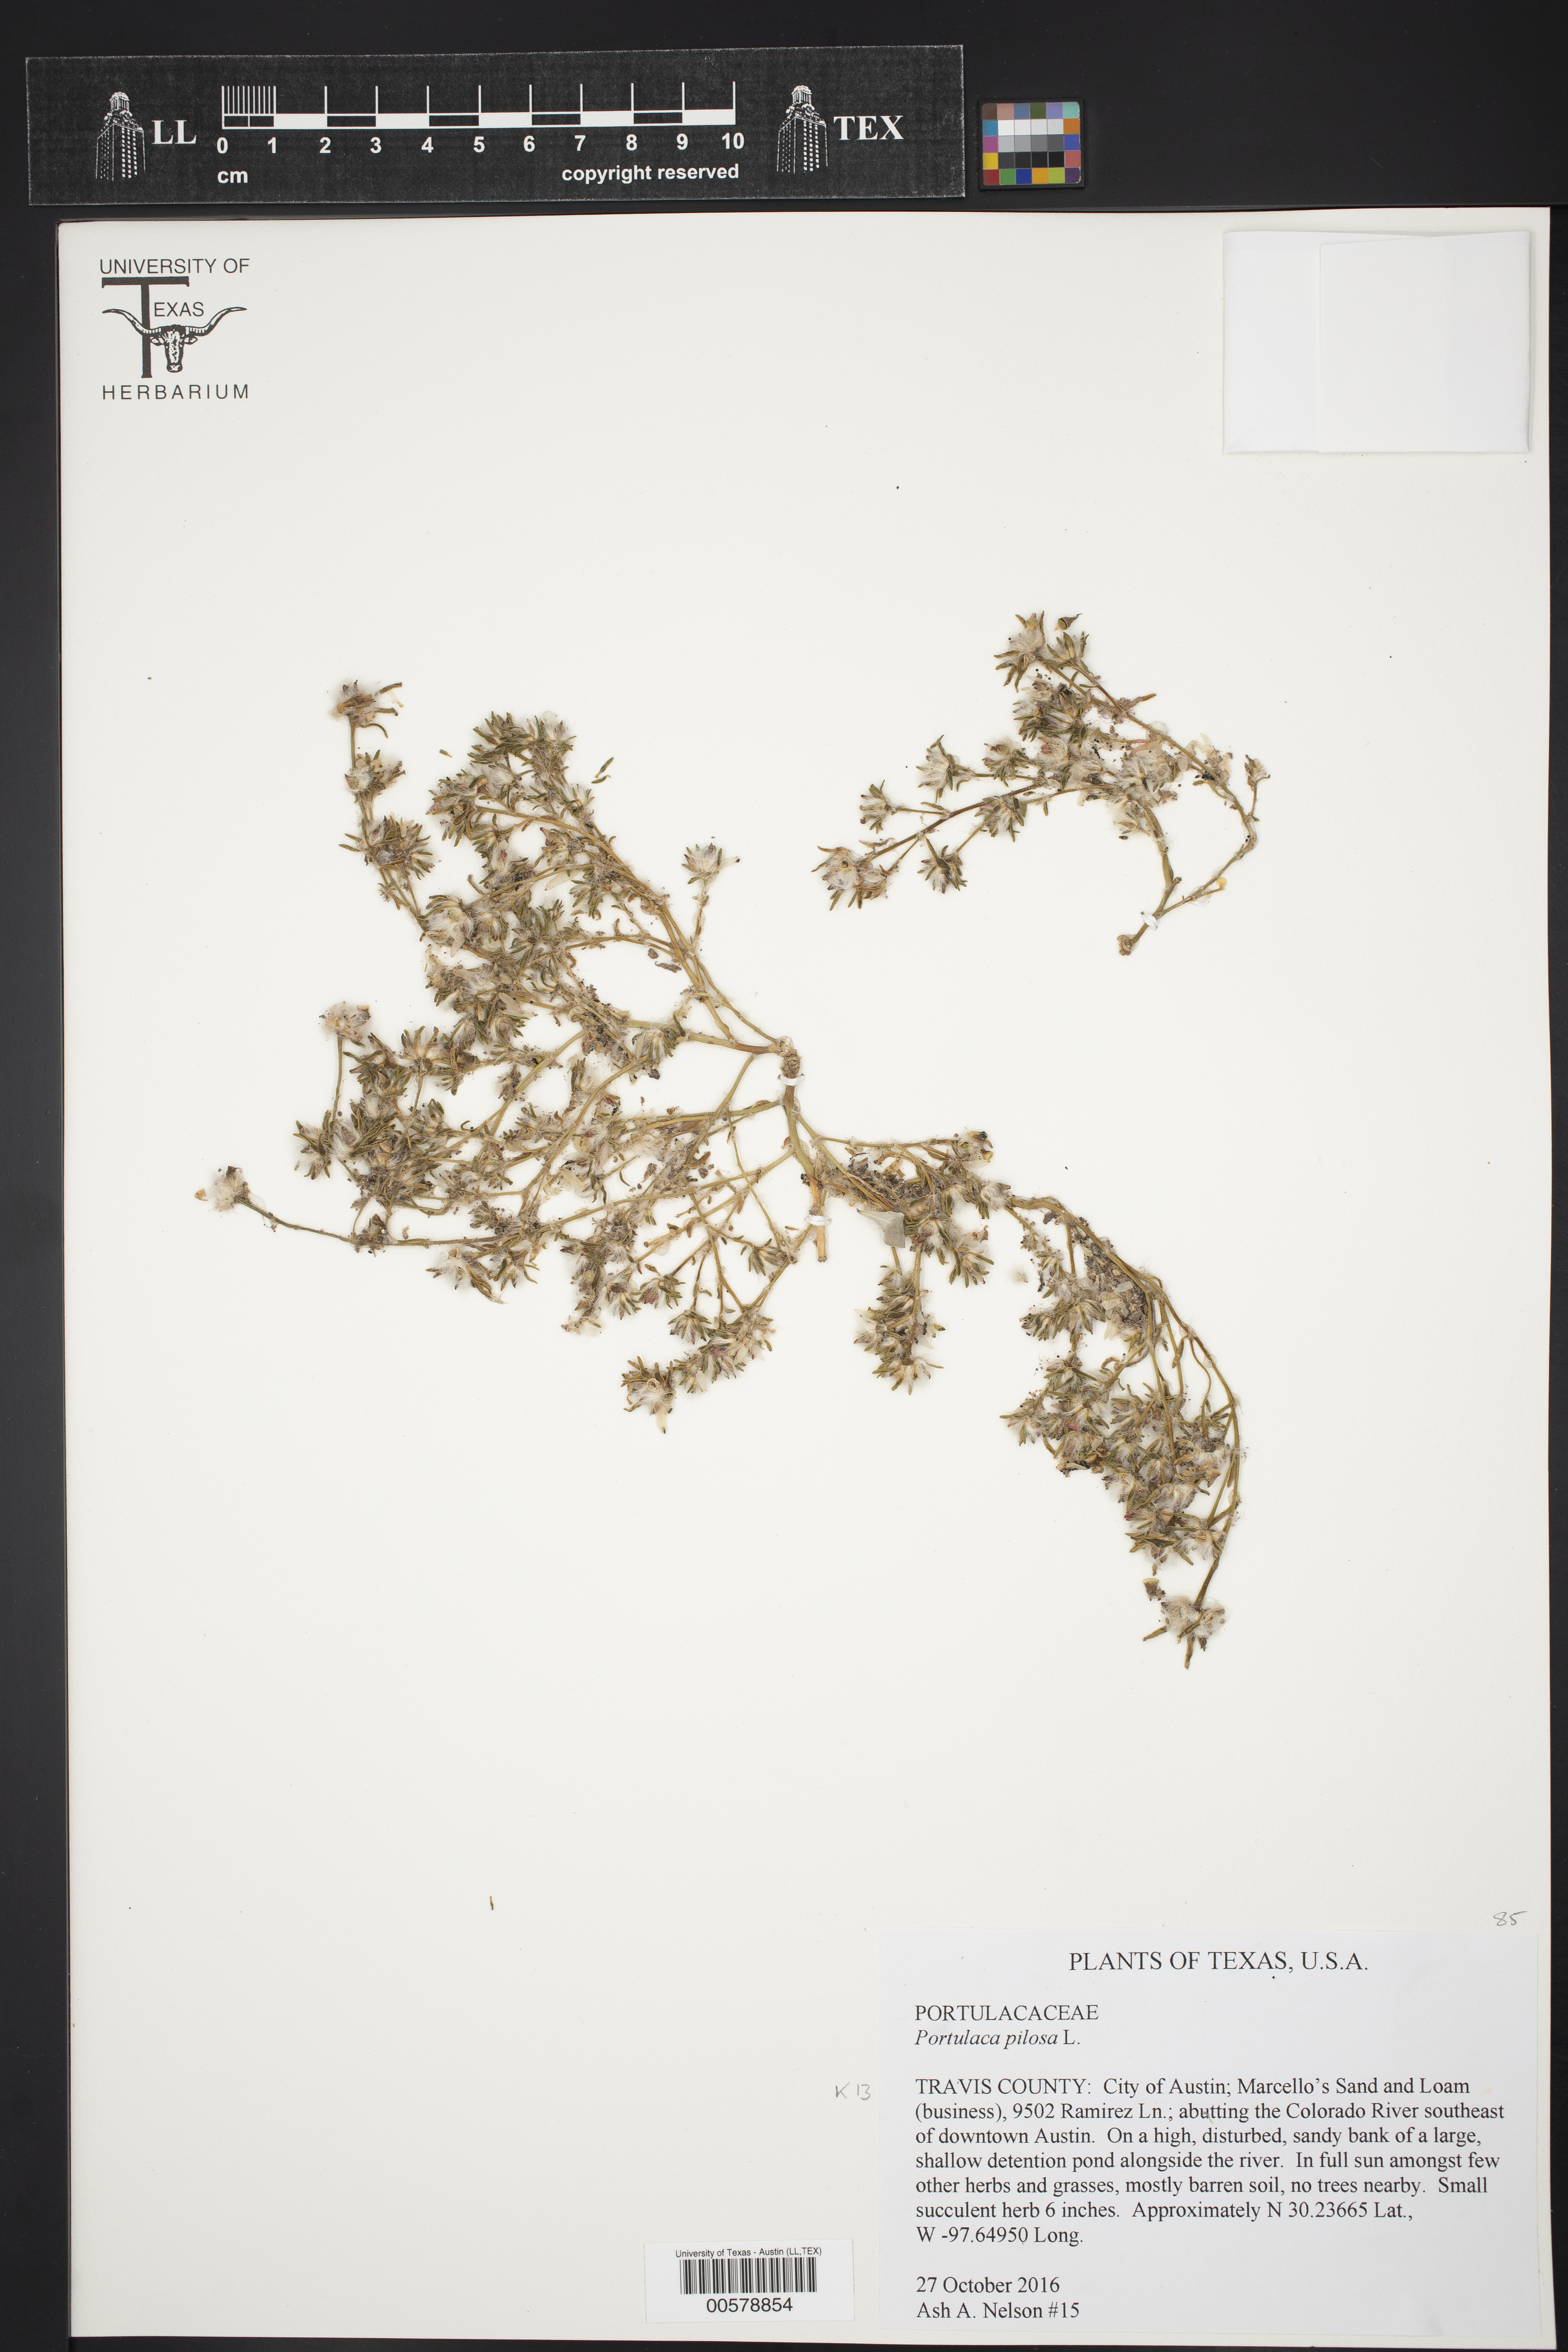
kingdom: Plantae
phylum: Tracheophyta
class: Magnoliopsida
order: Caryophyllales
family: Portulacaceae
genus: Portulaca
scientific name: Portulaca pilosa
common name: Kiss me quick
